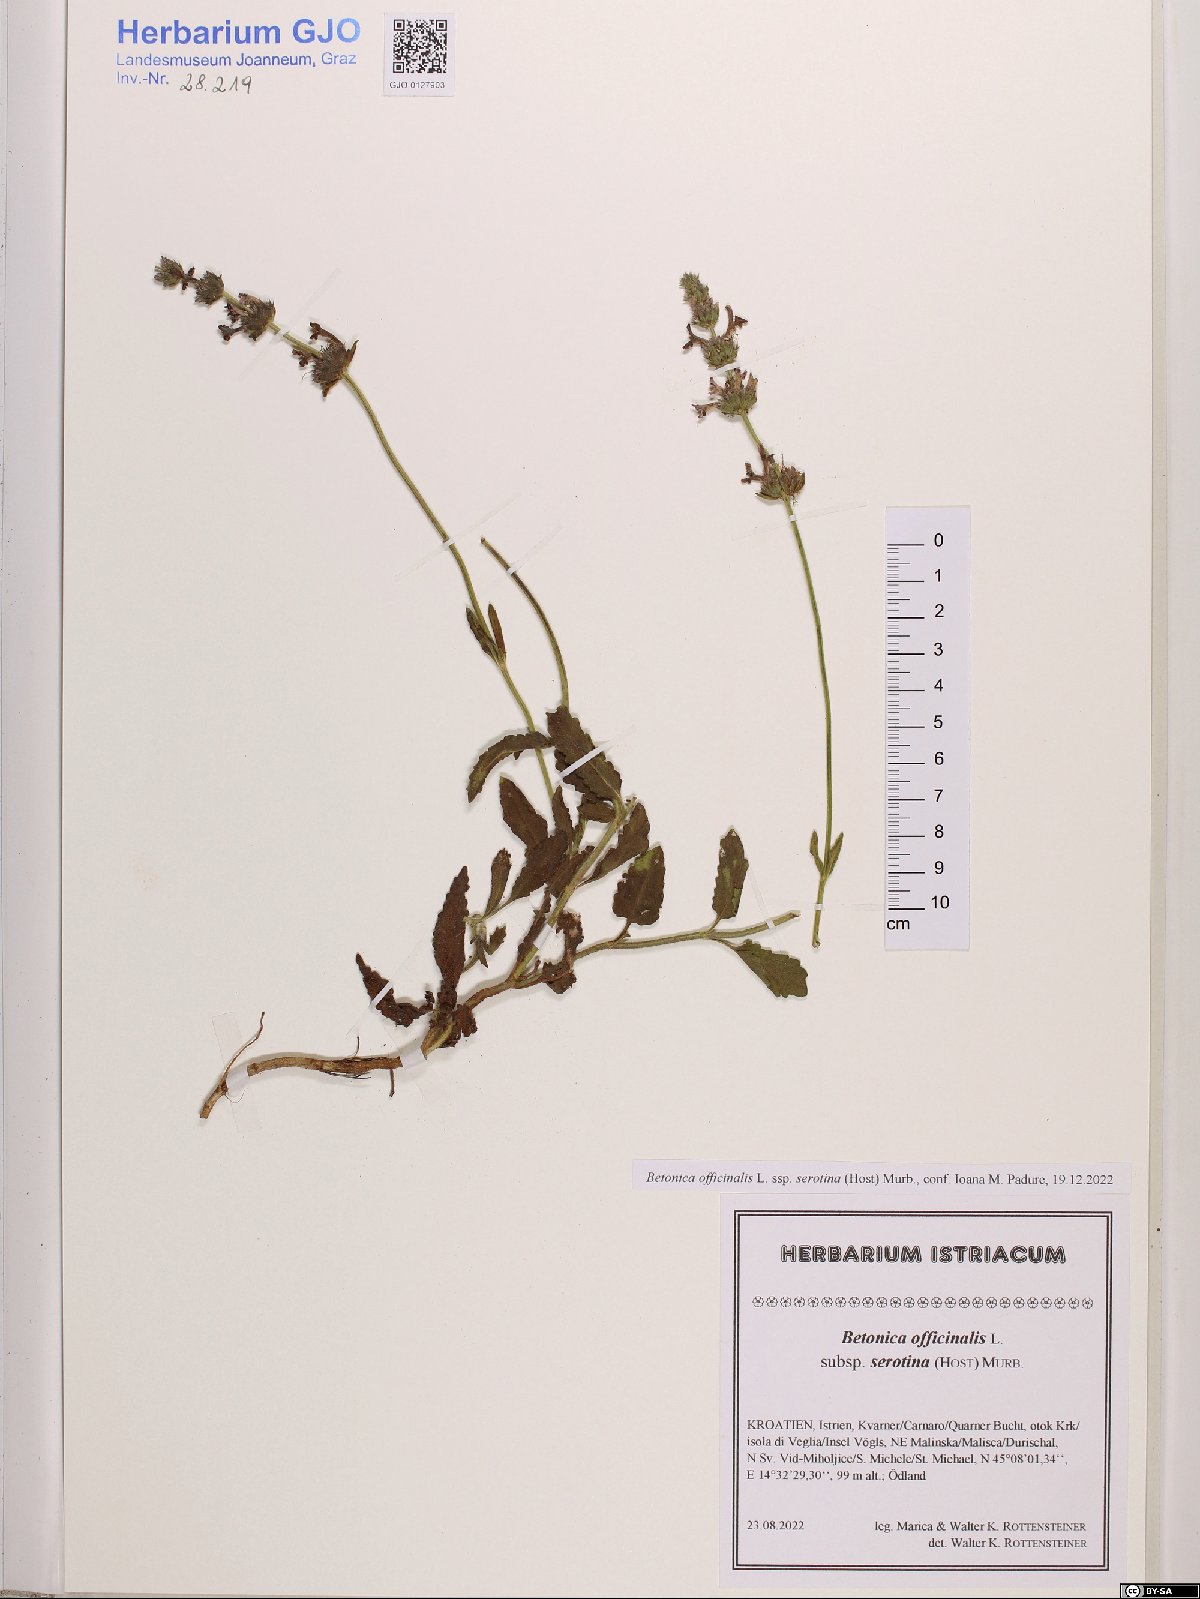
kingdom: Plantae
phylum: Tracheophyta
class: Magnoliopsida
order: Lamiales
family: Lamiaceae
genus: Betonica
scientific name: Betonica officinalis
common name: Bishop's-wort
